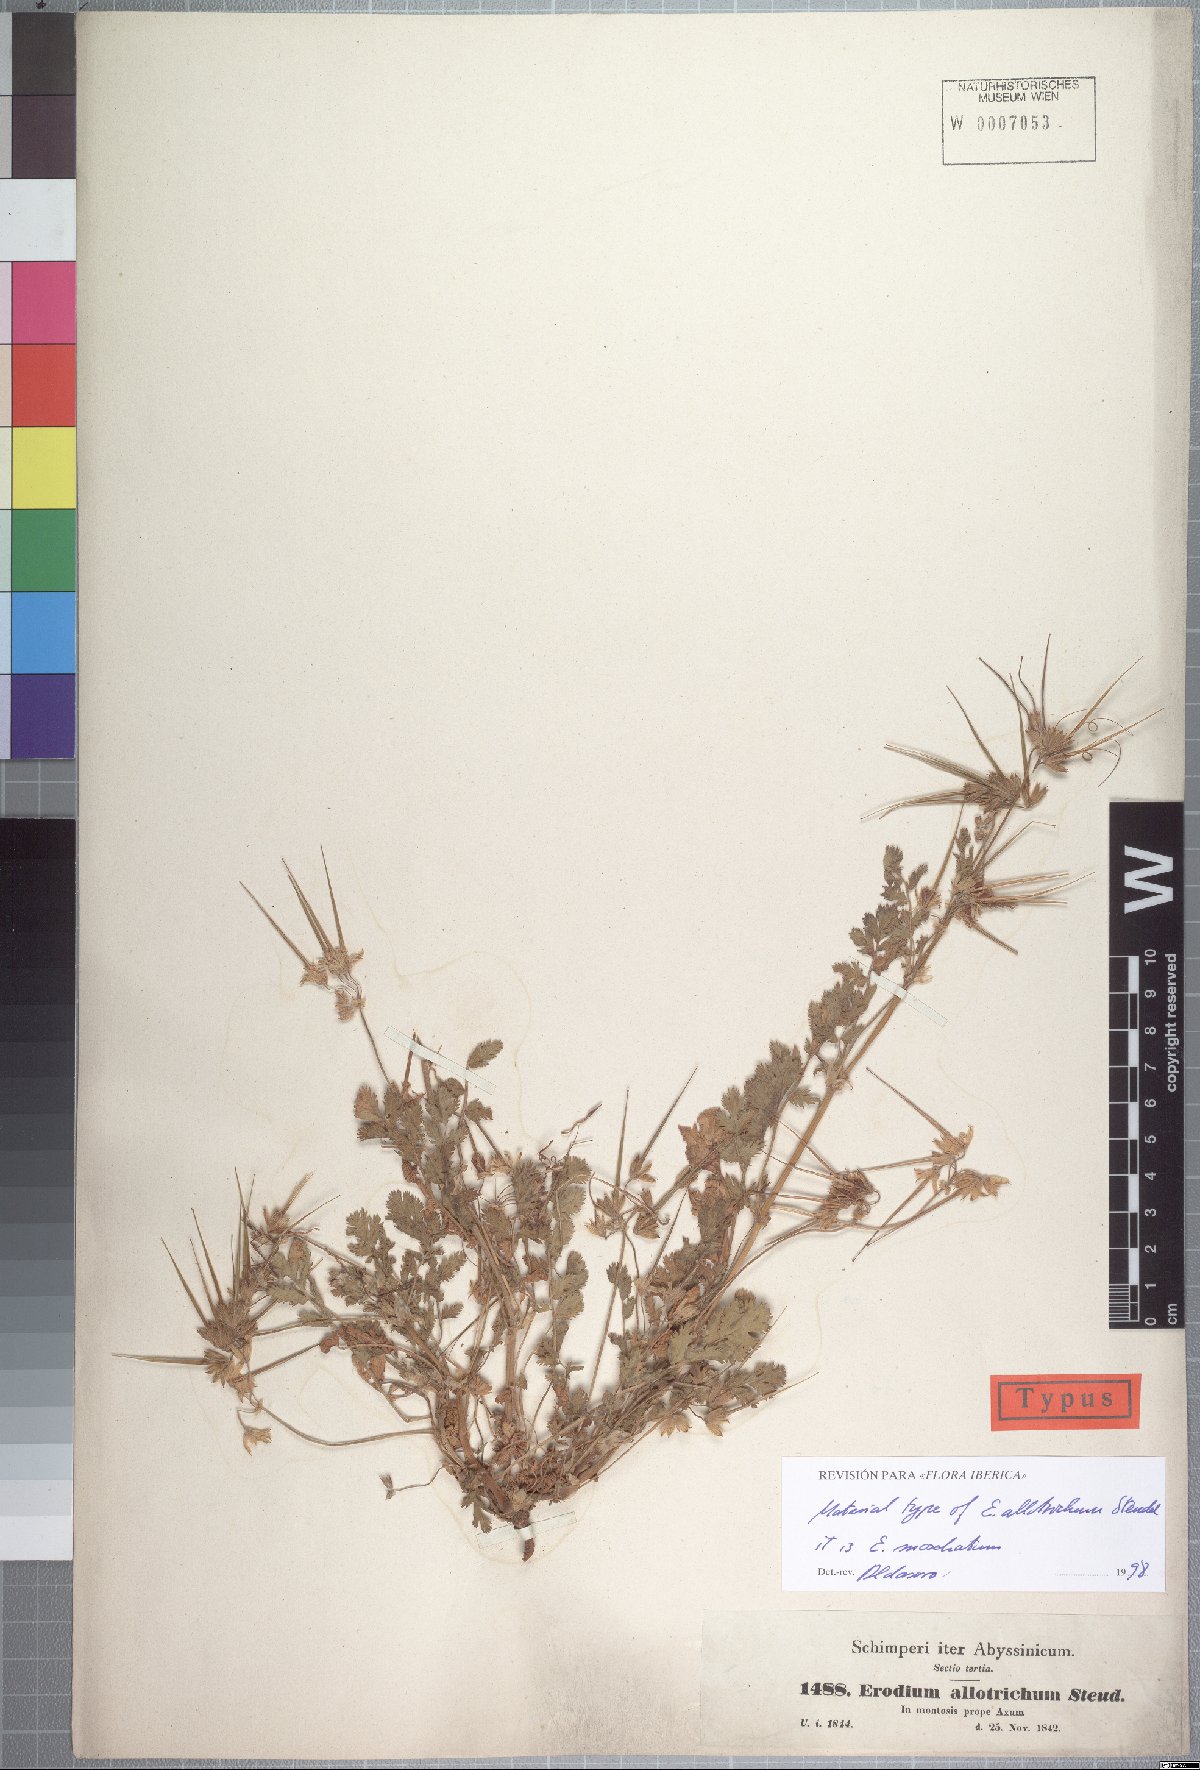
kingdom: Plantae
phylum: Tracheophyta
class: Magnoliopsida
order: Geraniales
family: Geraniaceae
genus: Erodium
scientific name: Erodium moschatum
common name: Musk stork's-bill
